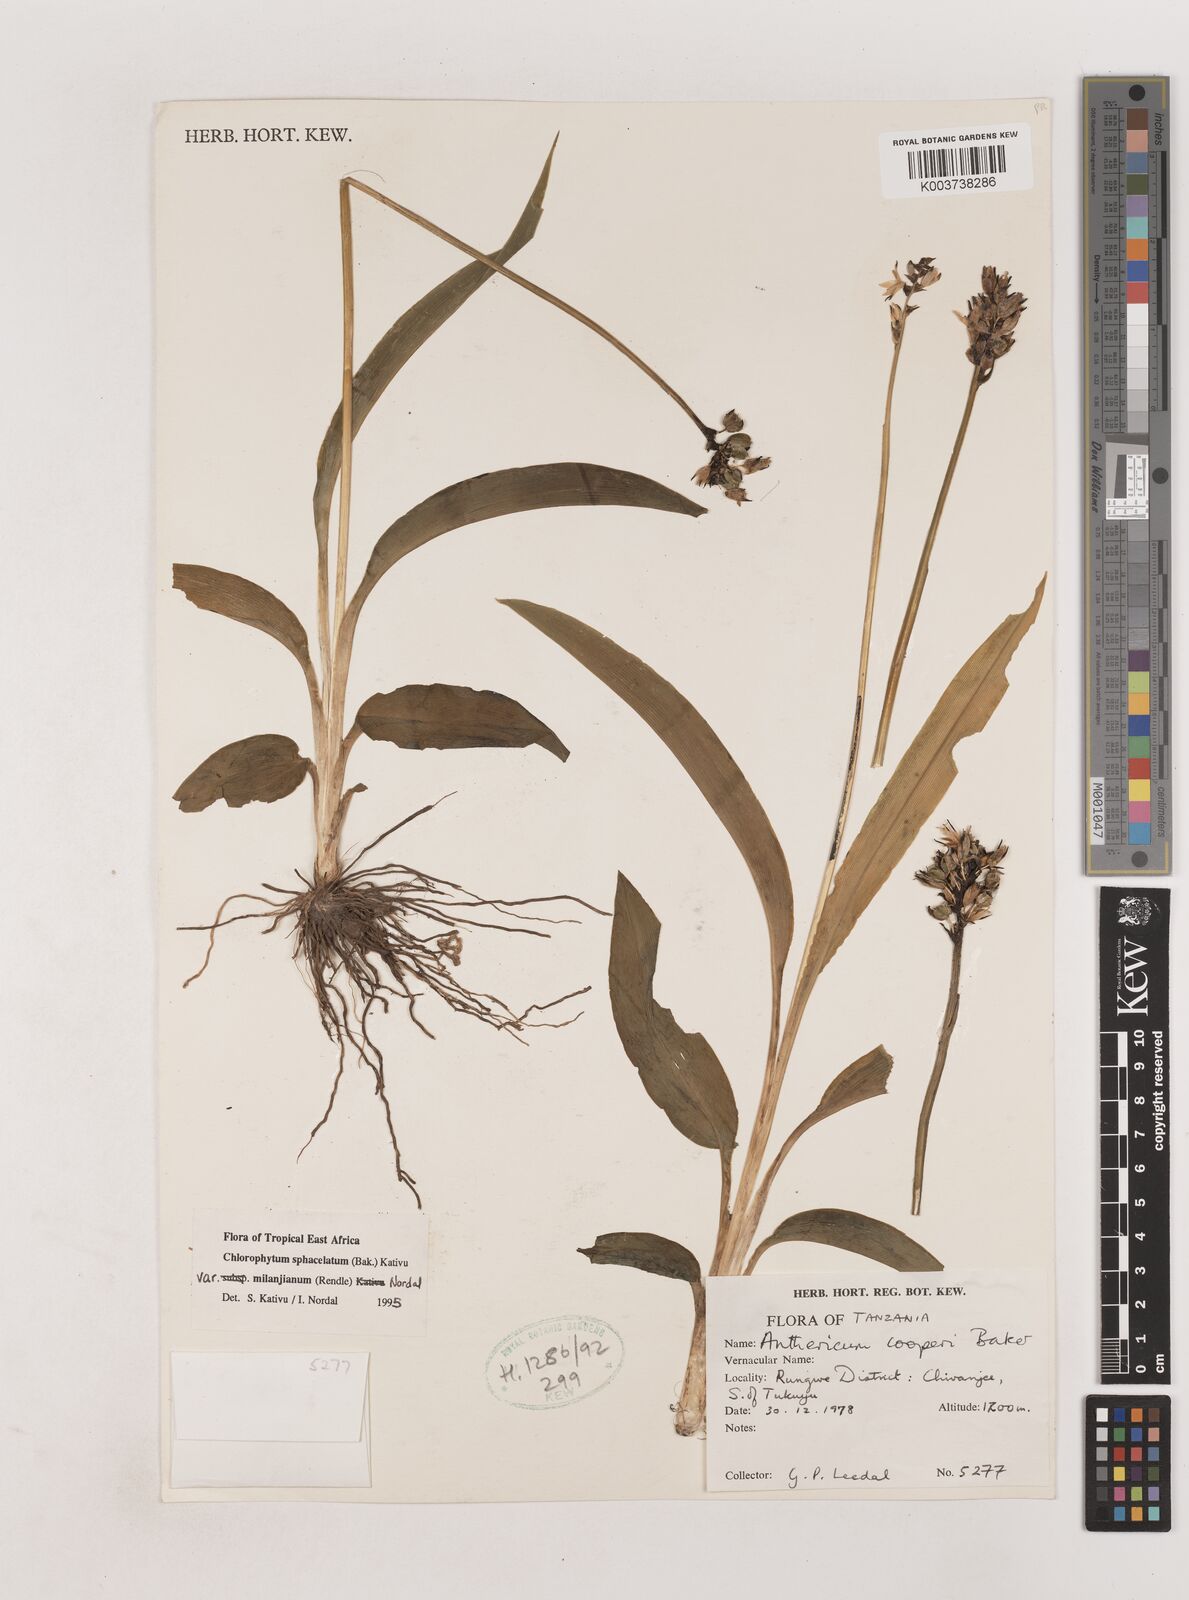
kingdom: Plantae
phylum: Tracheophyta
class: Liliopsida
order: Asparagales
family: Asparagaceae
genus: Chlorophytum
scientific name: Chlorophytum sphacelatum
